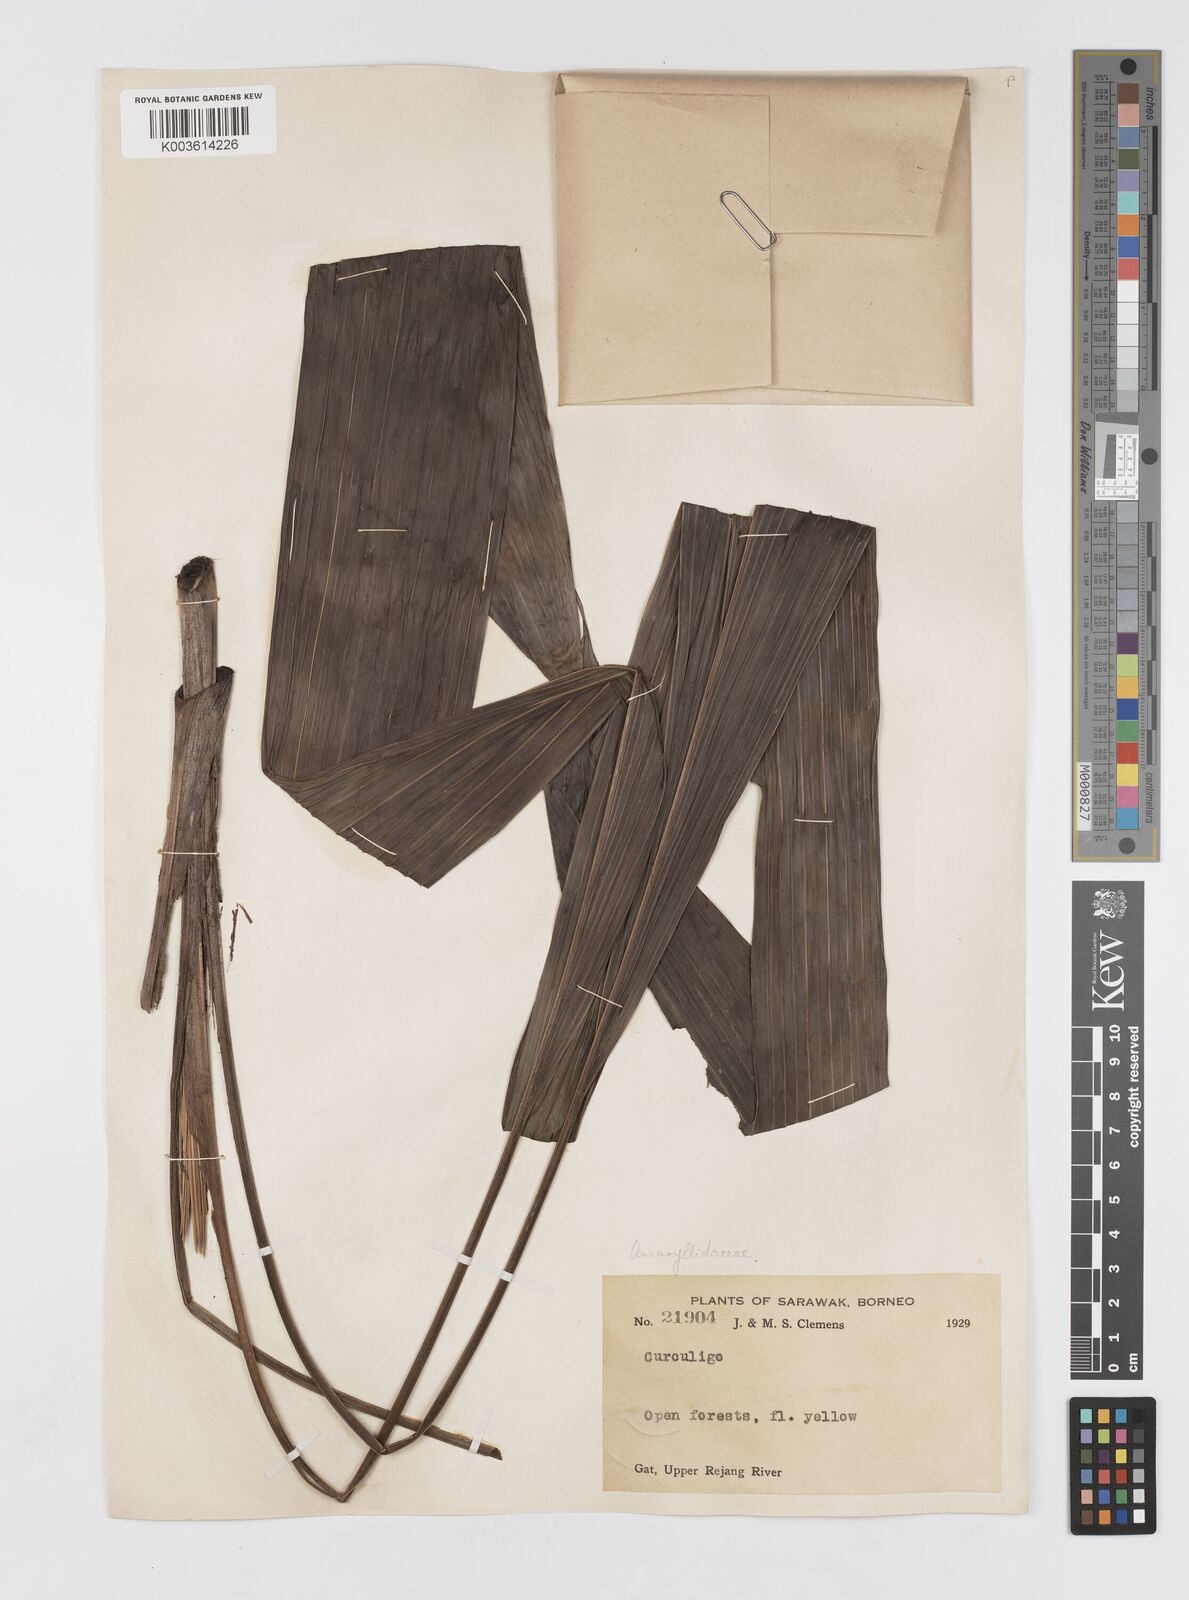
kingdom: Plantae
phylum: Tracheophyta
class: Liliopsida
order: Asparagales
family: Hypoxidaceae
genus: Curculigo
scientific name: Curculigo
